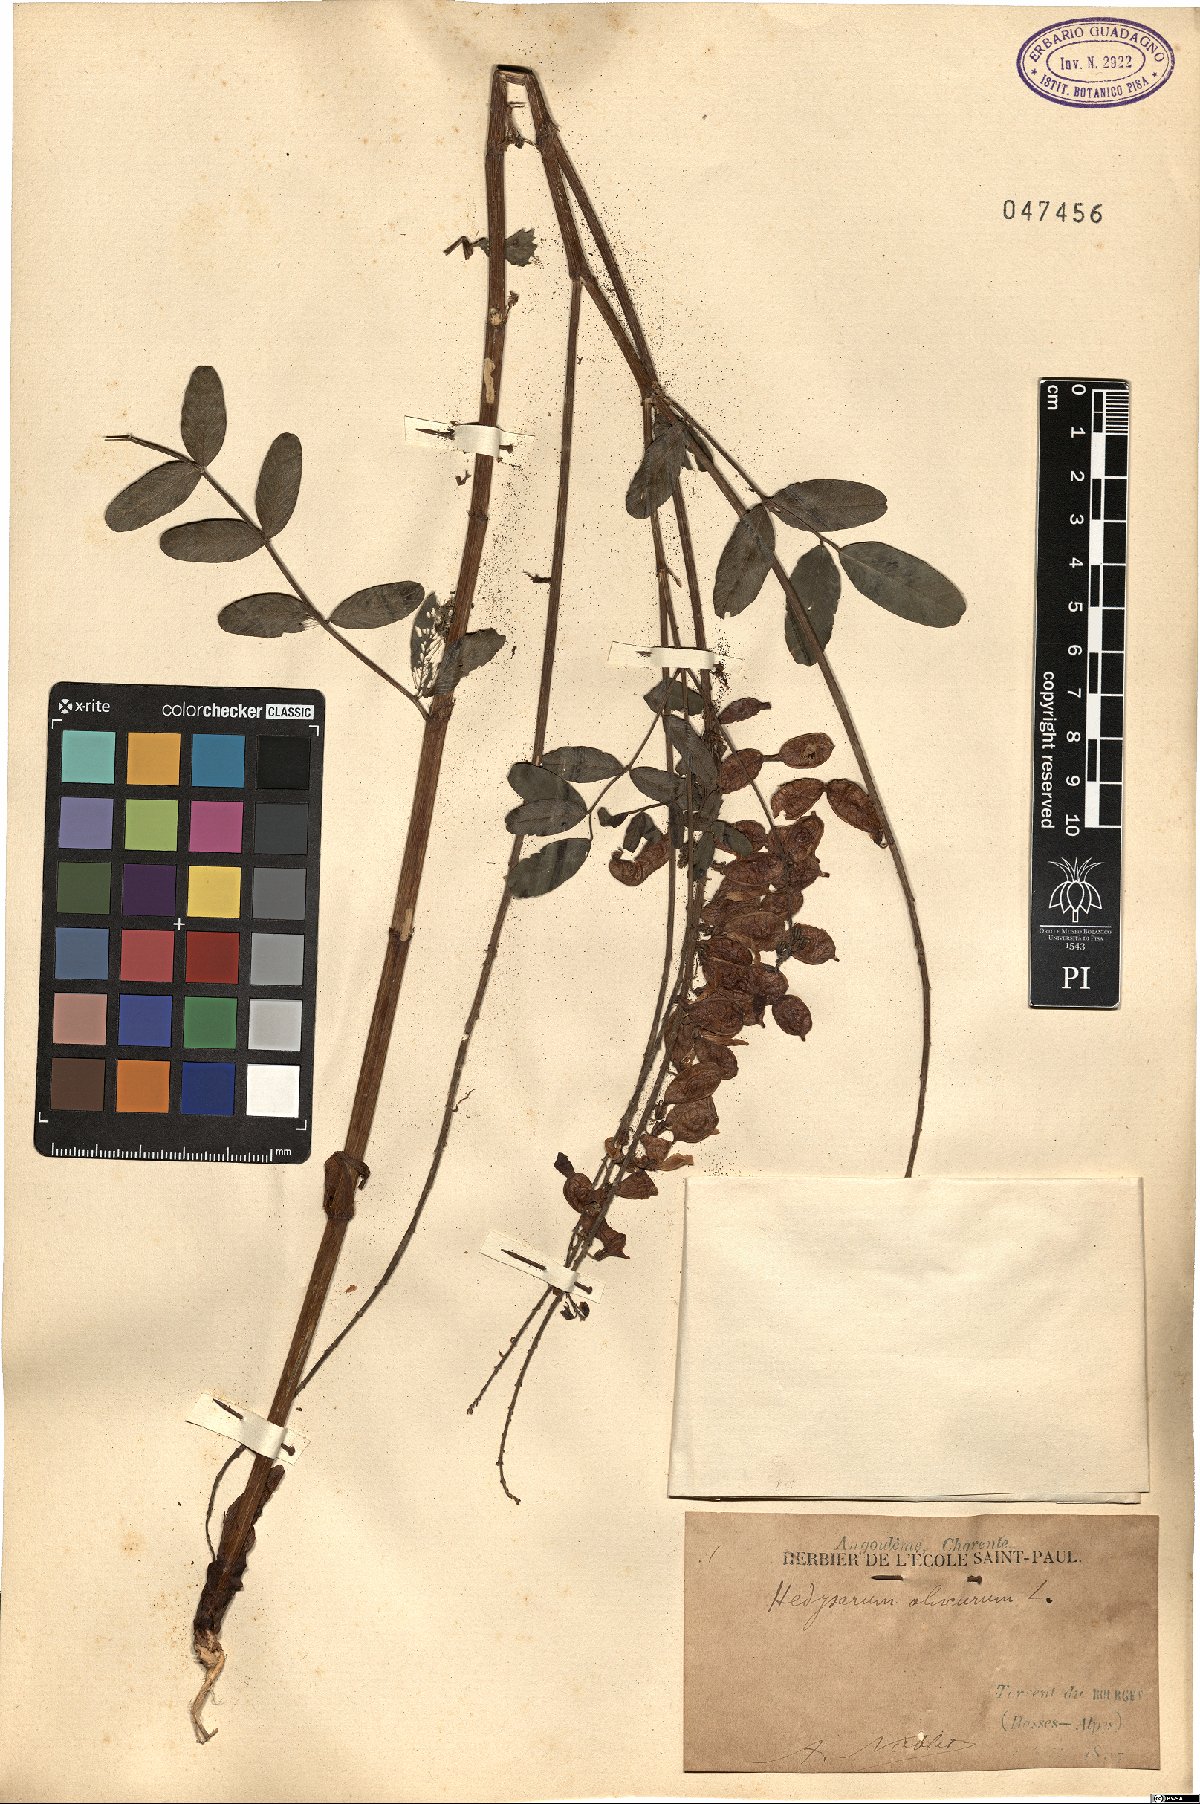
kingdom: Plantae
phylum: Tracheophyta
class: Magnoliopsida
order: Fabales
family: Fabaceae
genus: Hedysarum
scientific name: Hedysarum hedysaroides
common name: Alpine french-honeysuckle
